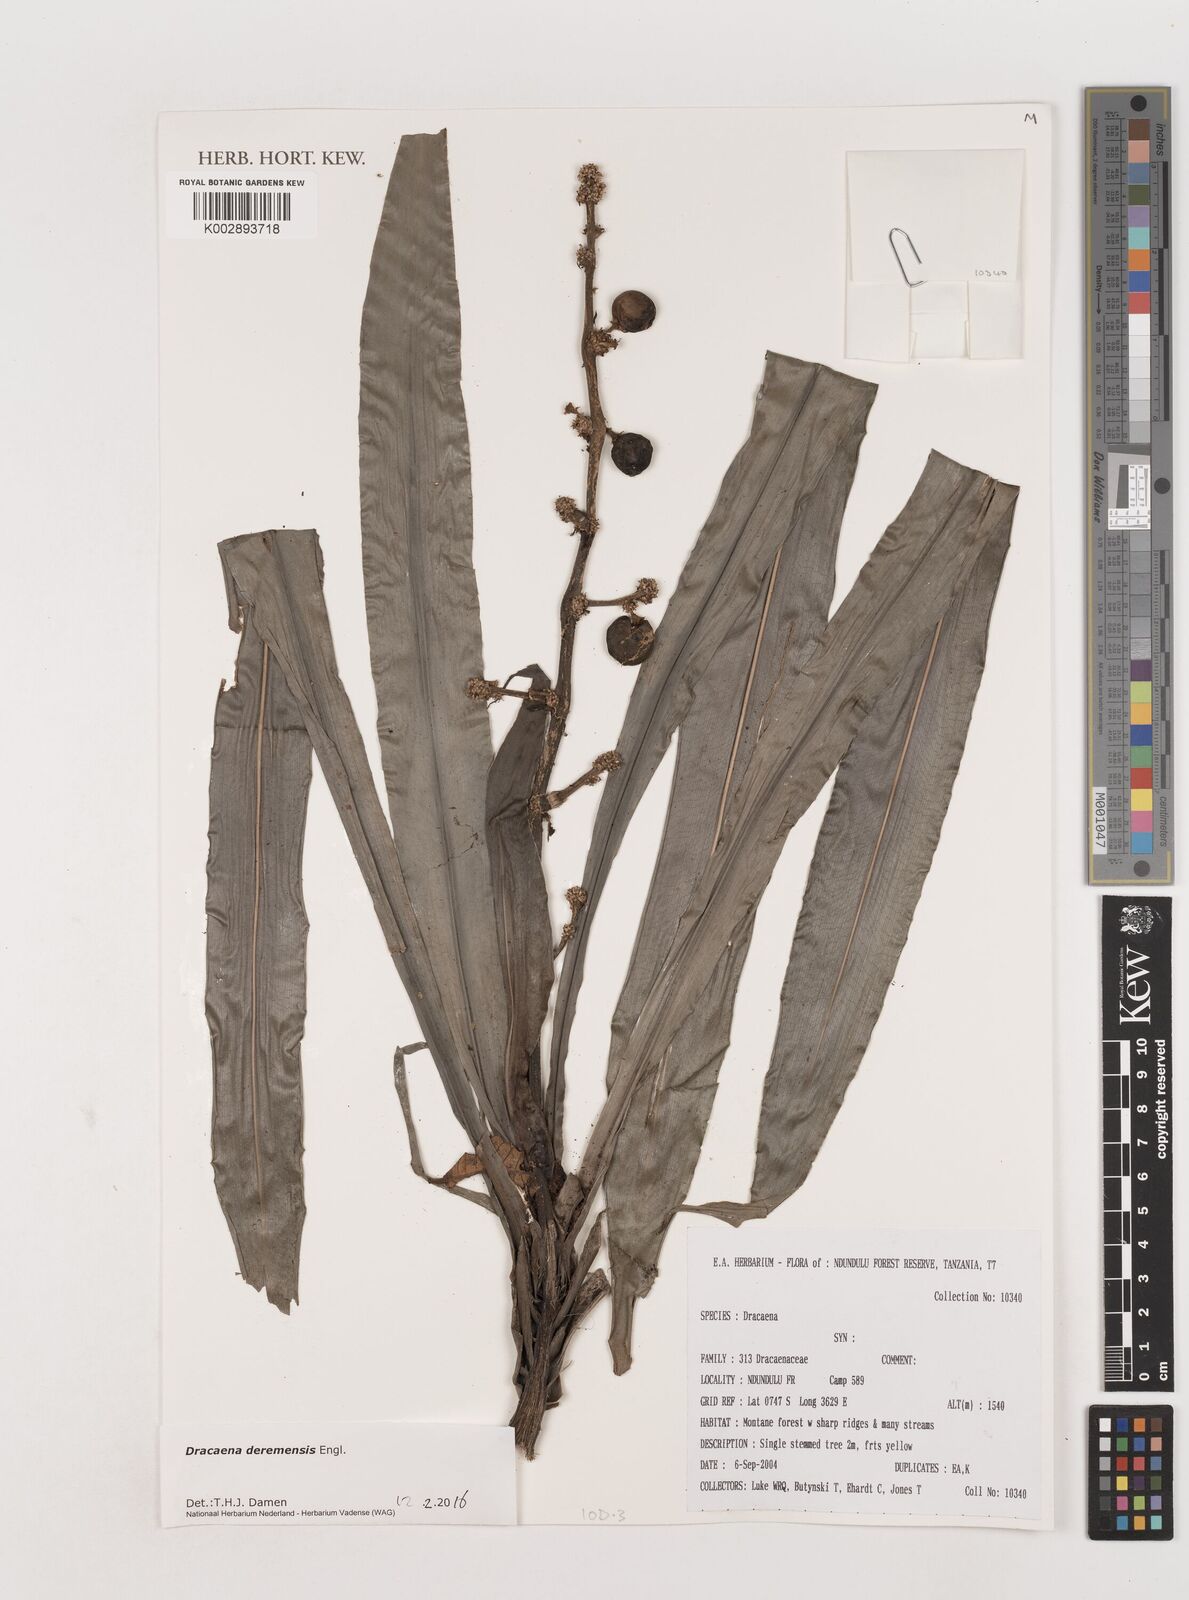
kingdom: Plantae
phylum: Tracheophyta
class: Liliopsida
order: Asparagales
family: Asparagaceae
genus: Dracaena
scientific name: Dracaena fragrans
